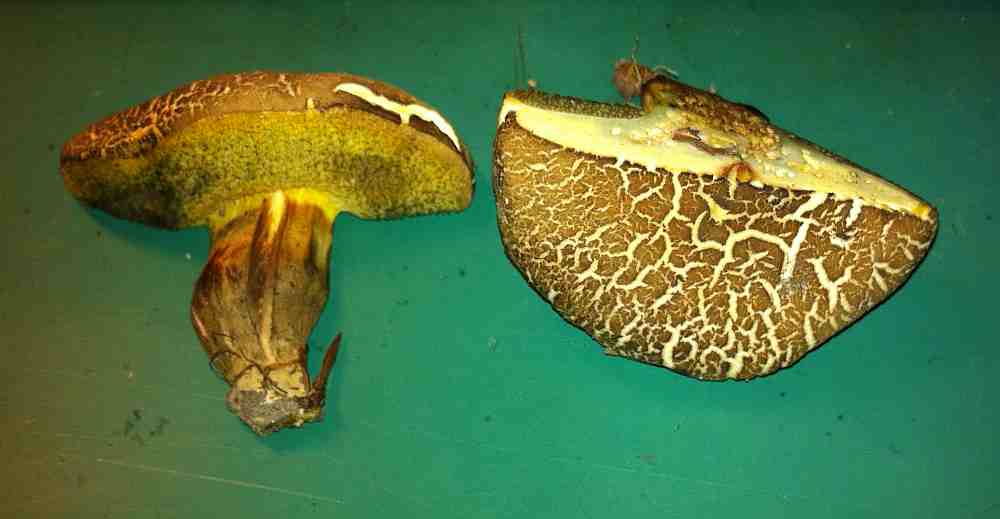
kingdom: Fungi
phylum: Basidiomycota
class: Agaricomycetes
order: Boletales
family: Boletaceae
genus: Xerocomellus
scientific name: Xerocomellus porosporus
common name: hvidsprukken rørhat
